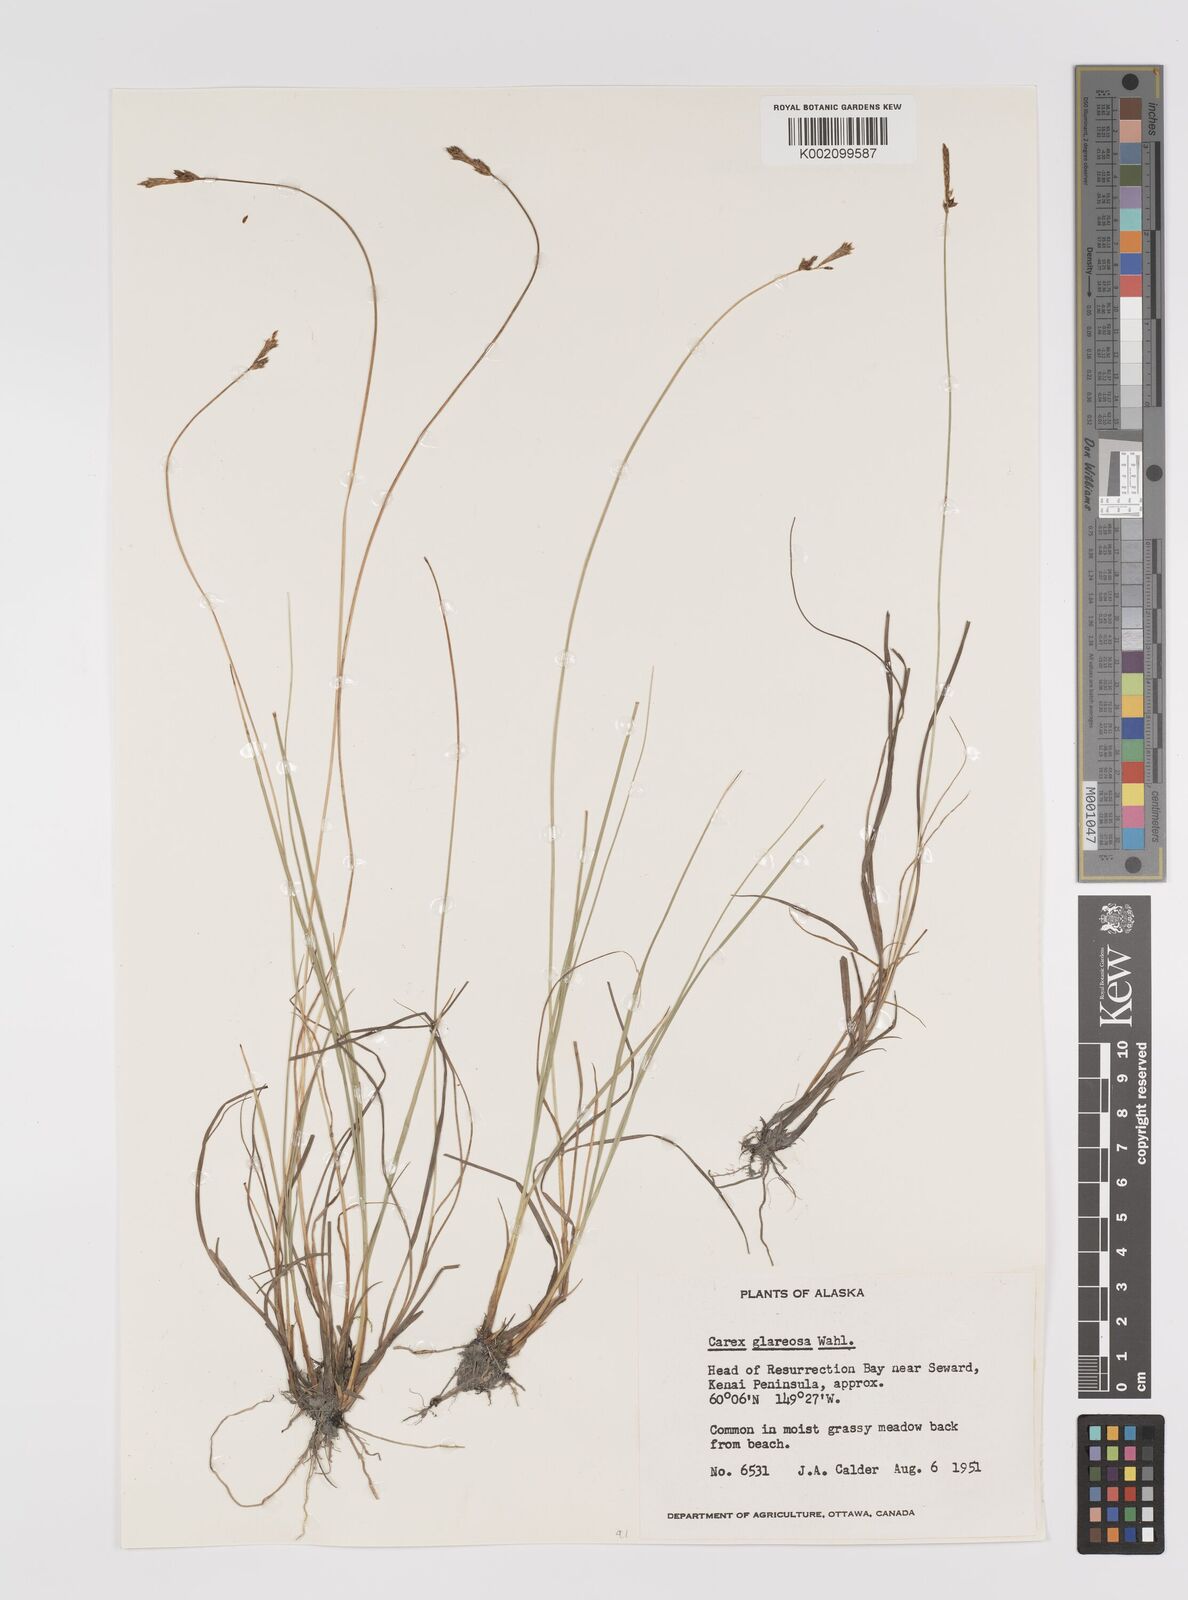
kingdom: Plantae
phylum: Tracheophyta
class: Liliopsida
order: Poales
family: Cyperaceae
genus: Carex
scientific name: Carex glareosa
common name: Clustered sedge
